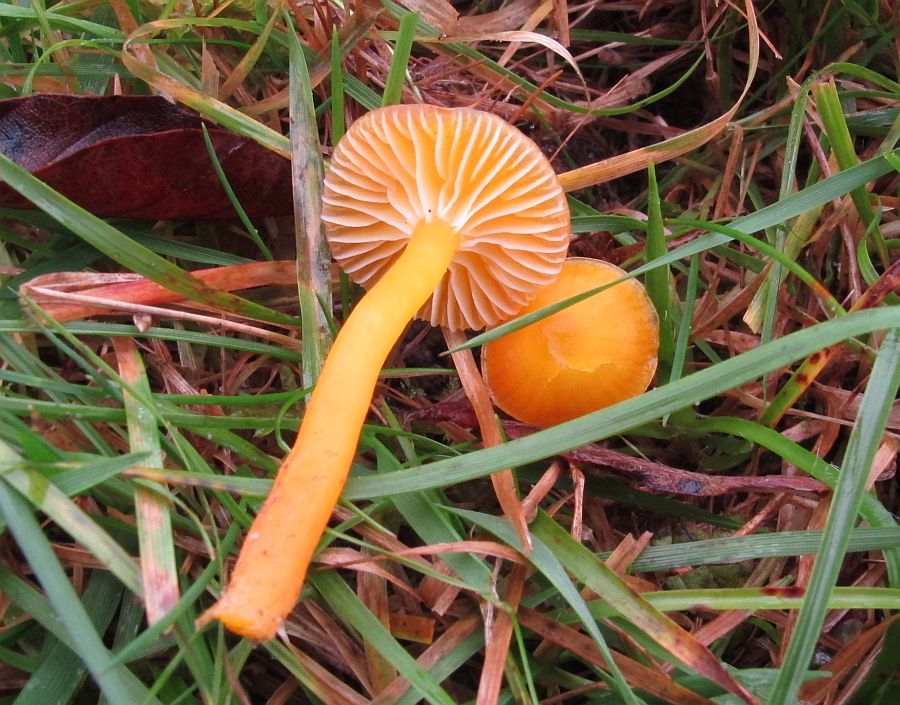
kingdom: Fungi
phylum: Basidiomycota
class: Agaricomycetes
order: Agaricales
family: Hygrophoraceae
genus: Hygrocybe
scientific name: Hygrocybe ceracea
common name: voksgul vokshat
